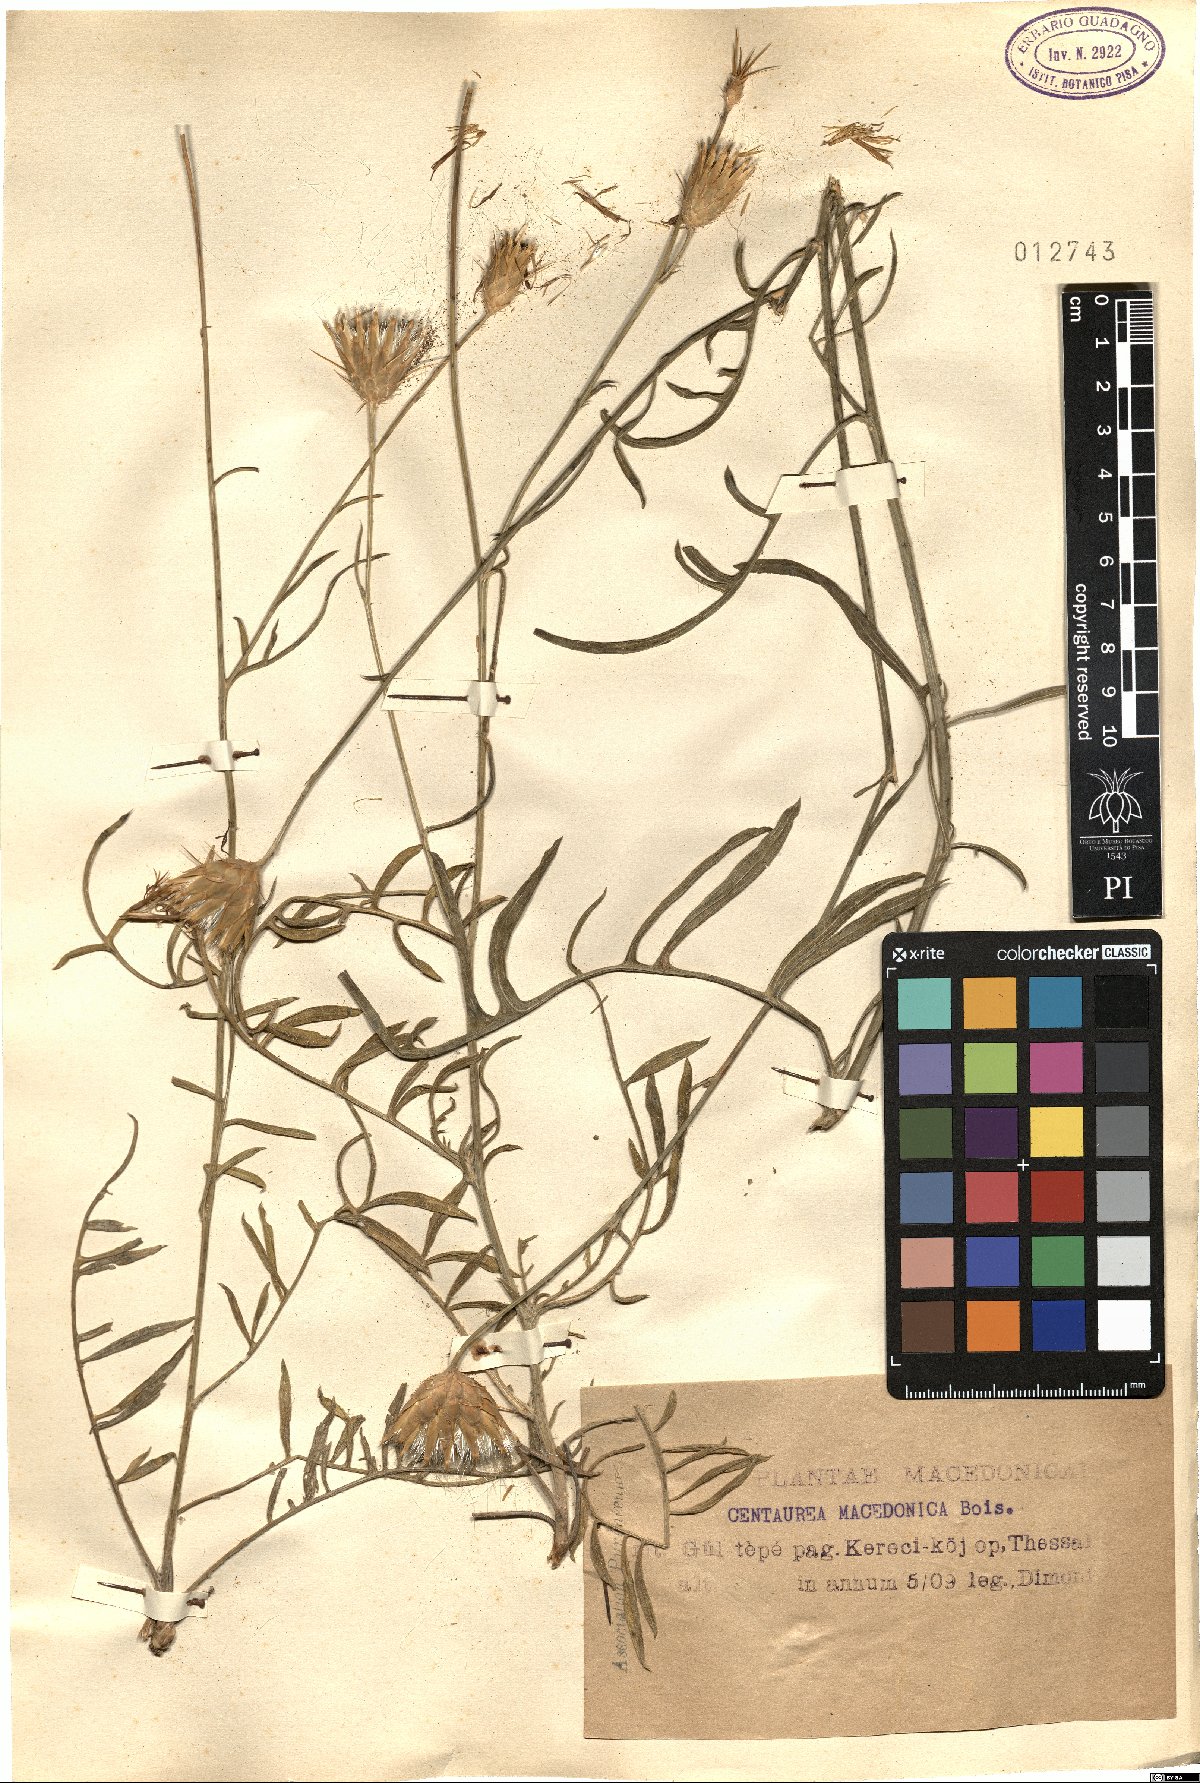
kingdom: Plantae
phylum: Tracheophyta
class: Magnoliopsida
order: Asterales
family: Asteraceae
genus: Centaurea
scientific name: Centaurea macedonica
